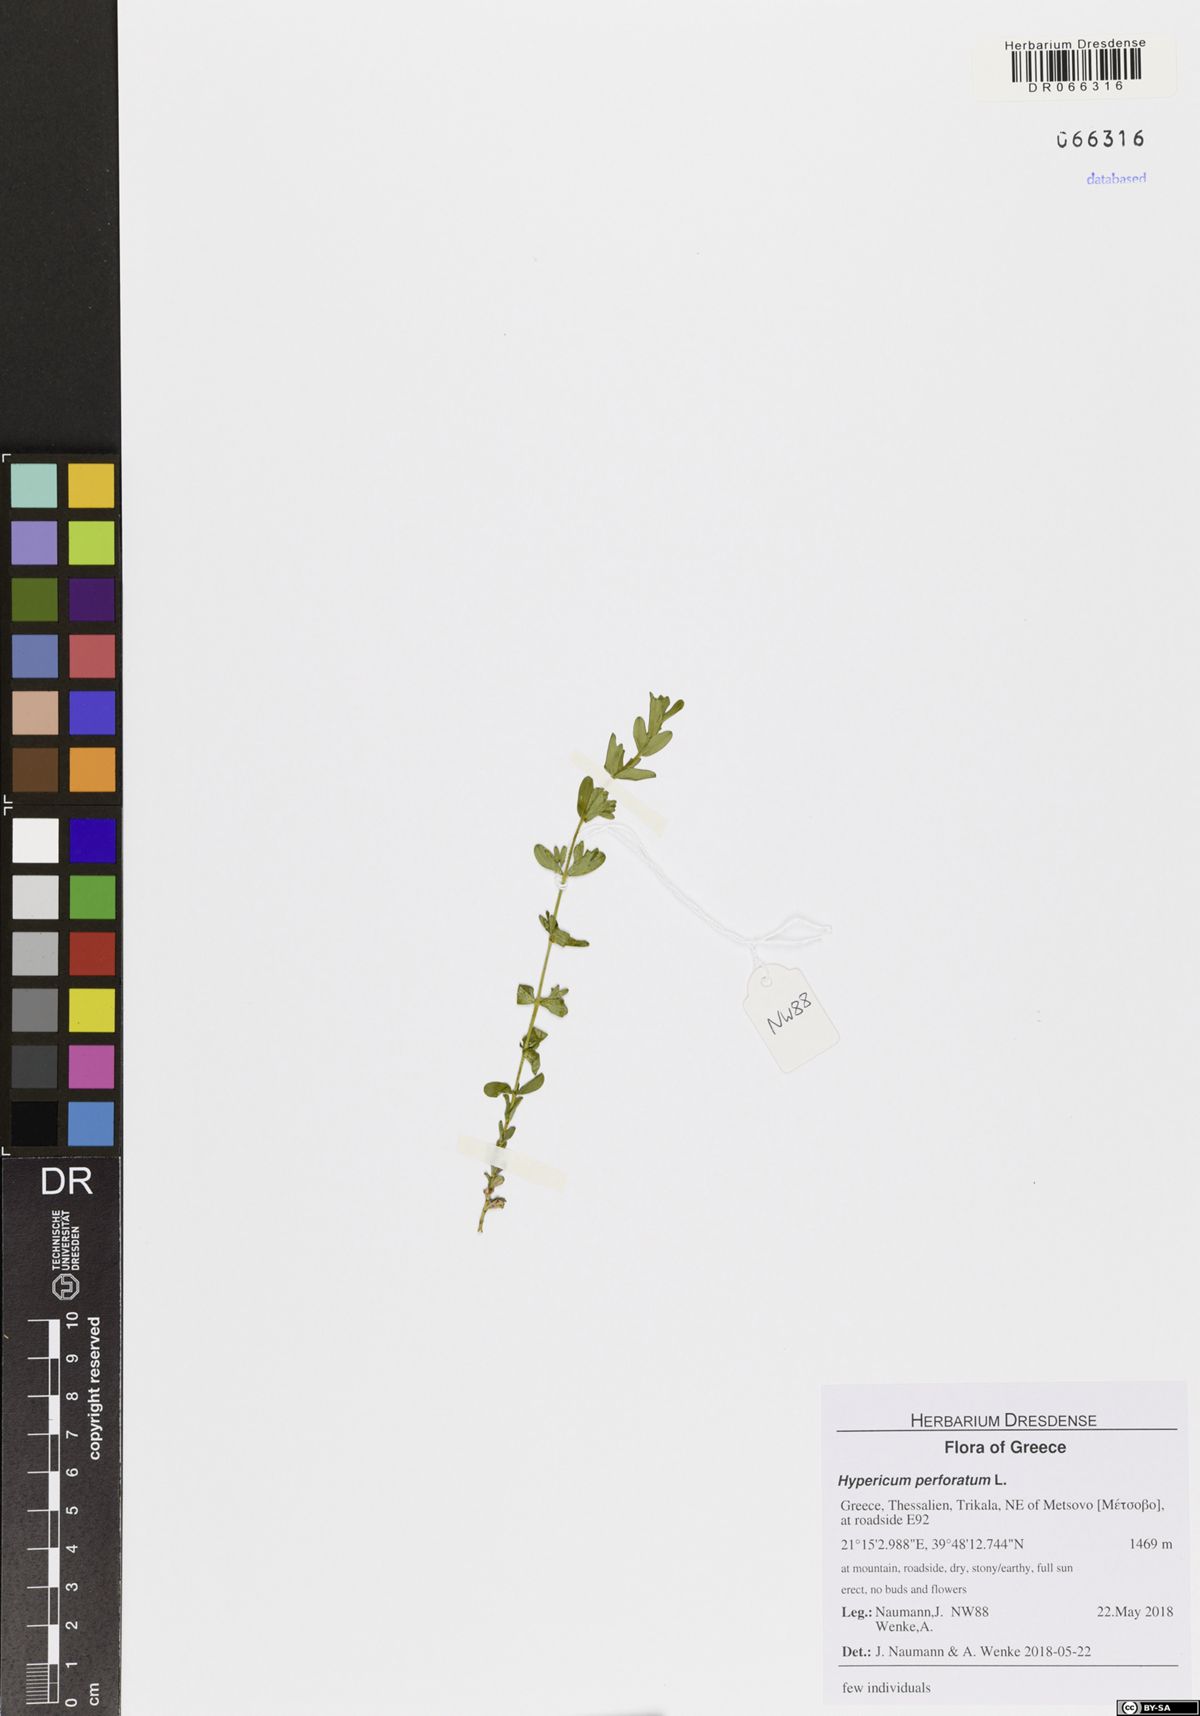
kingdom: Plantae
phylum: Tracheophyta
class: Magnoliopsida
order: Malpighiales
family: Hypericaceae
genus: Hypericum
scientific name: Hypericum perforatum
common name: Common st. johnswort
